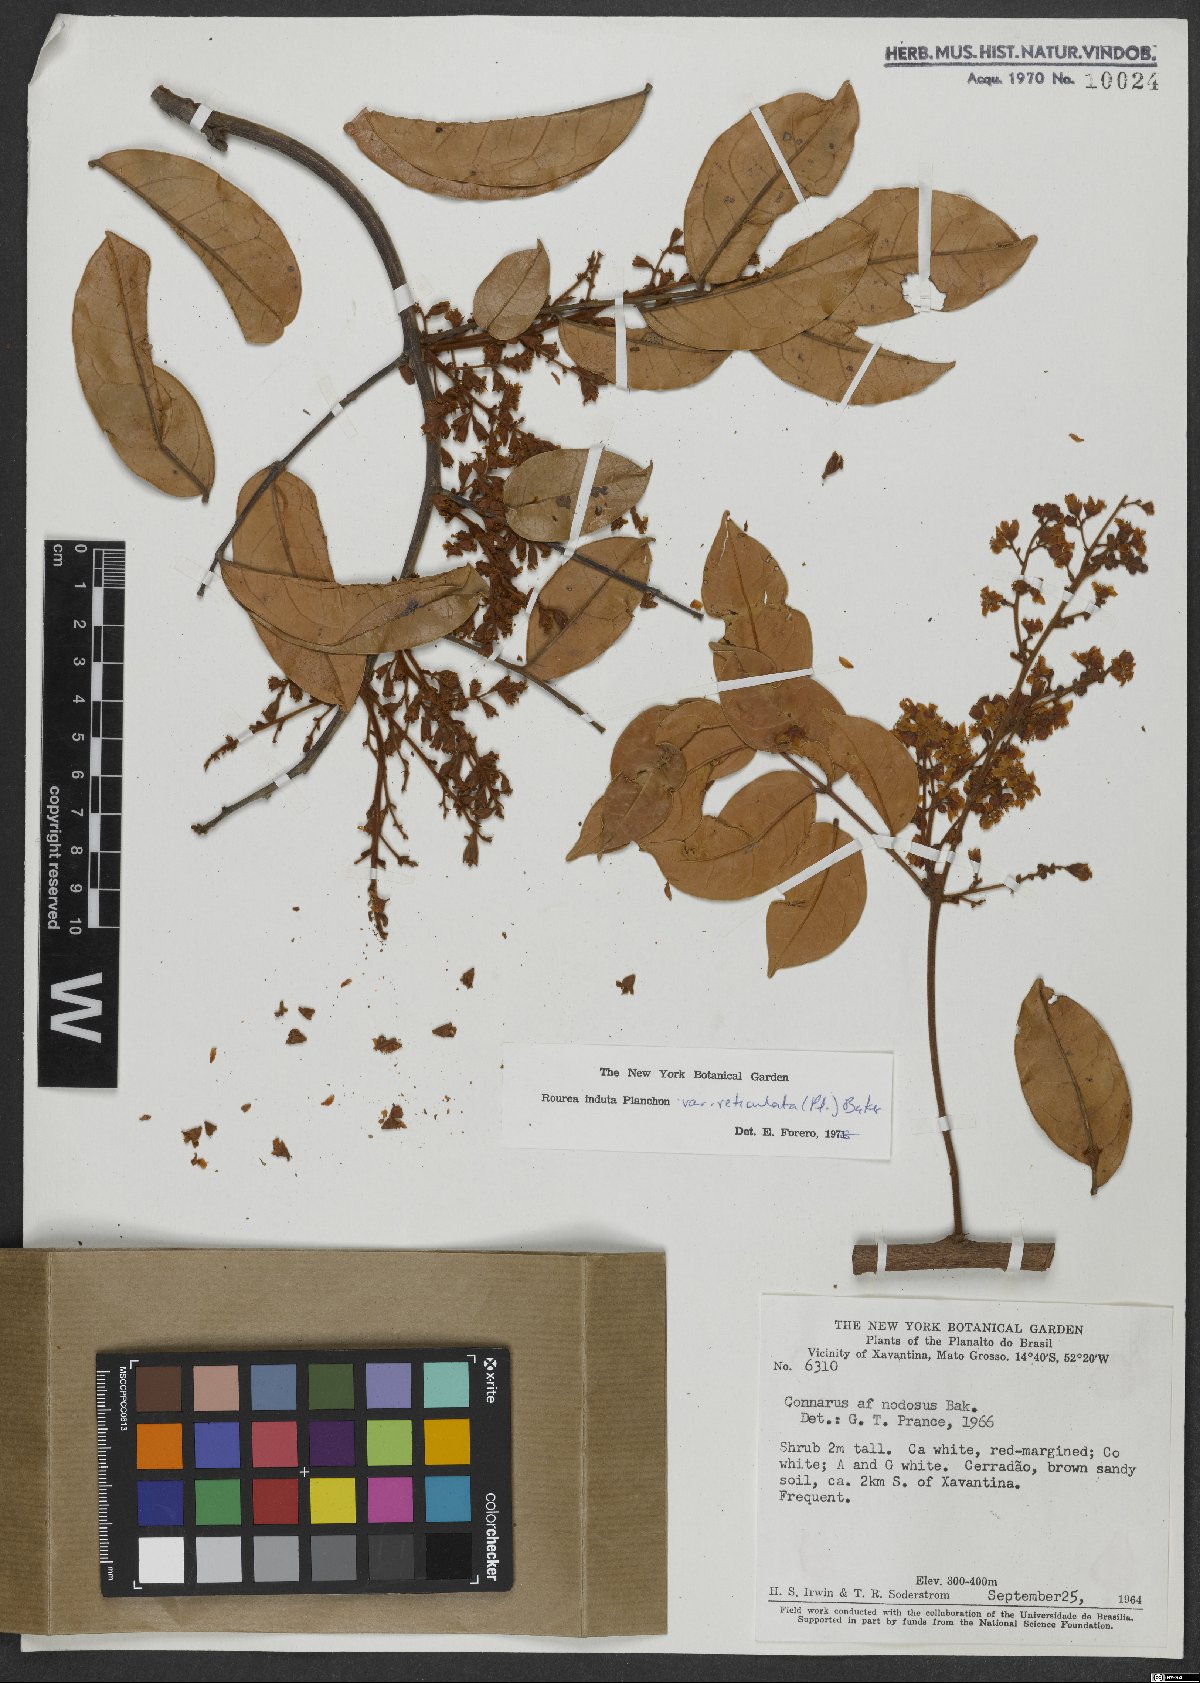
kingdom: Plantae
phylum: Tracheophyta
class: Magnoliopsida
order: Oxalidales
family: Connaraceae
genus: Rourea
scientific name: Rourea induta
